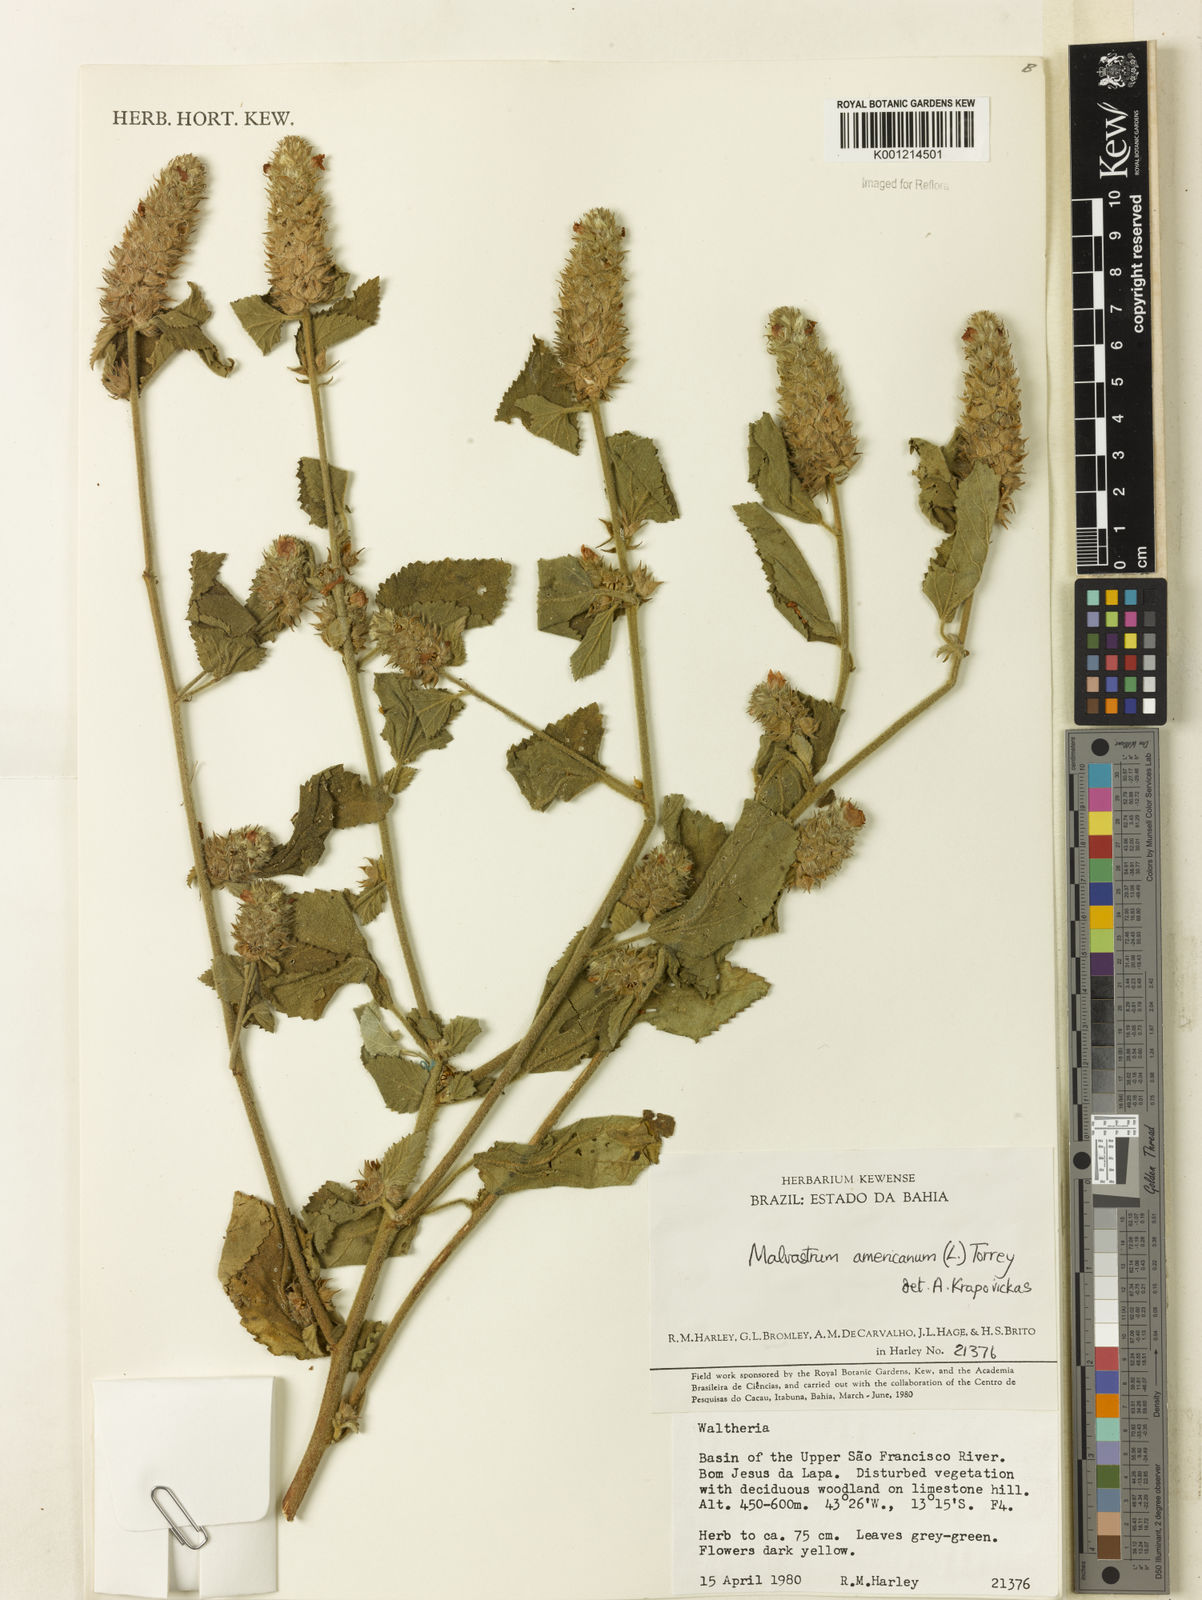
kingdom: Plantae
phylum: Tracheophyta
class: Magnoliopsida
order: Malvales
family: Malvaceae
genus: Malvastrum
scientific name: Malvastrum americanum
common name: Spiked malvastrum
